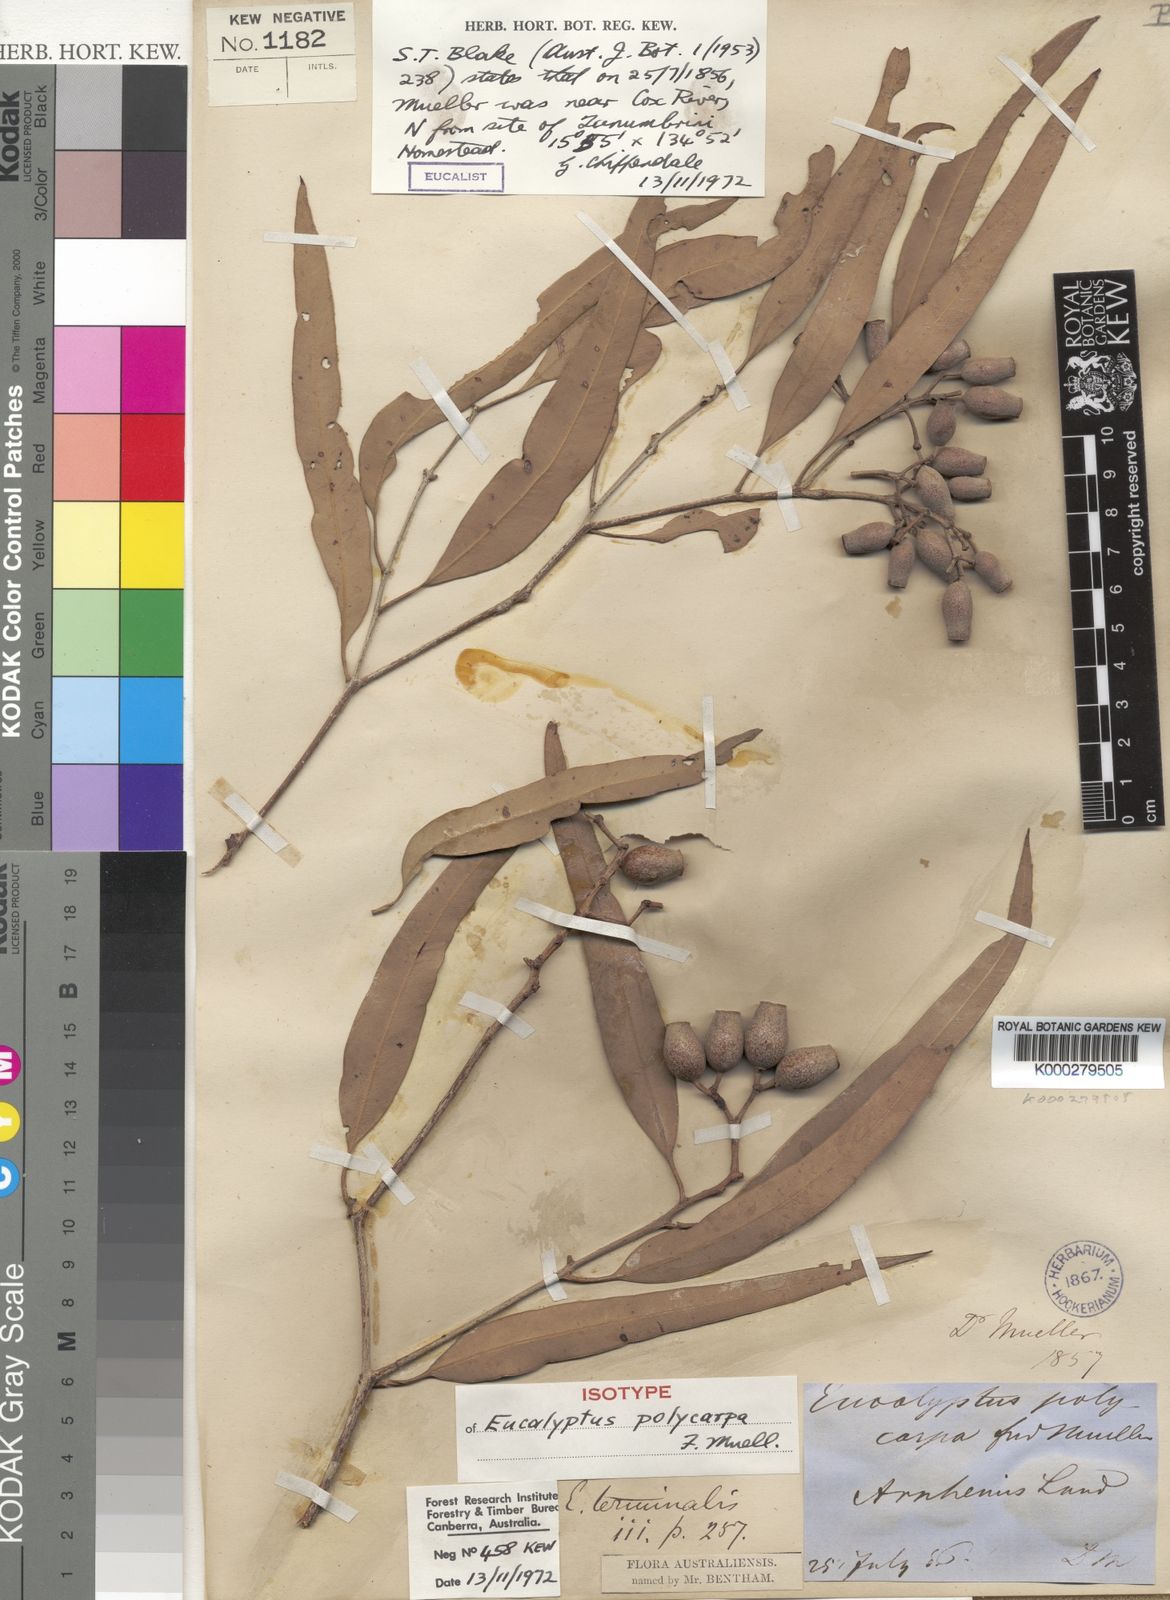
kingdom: Plantae
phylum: Tracheophyta
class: Magnoliopsida
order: Myrtales
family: Myrtaceae
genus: Corymbia
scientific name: Corymbia polycarpa
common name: Long-fruited-bloodwood
